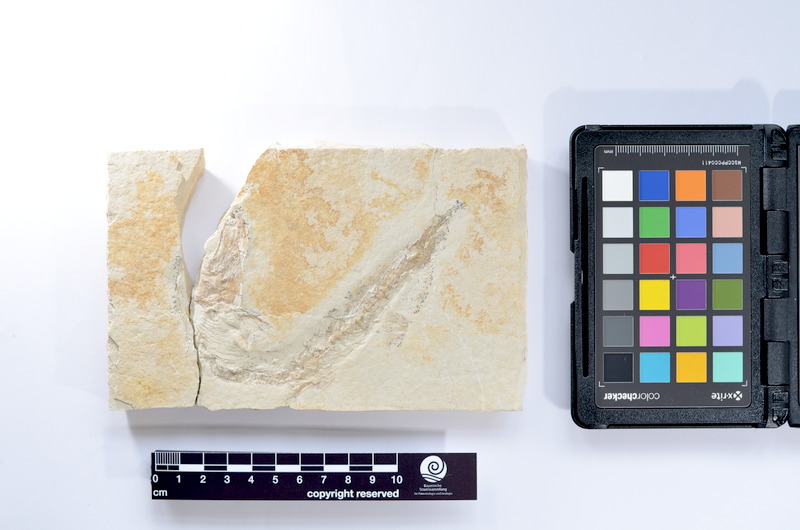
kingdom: Animalia
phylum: Chordata
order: Elopiformes
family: Anaethalionidae
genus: Anaethalion
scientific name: Anaethalion knorri
